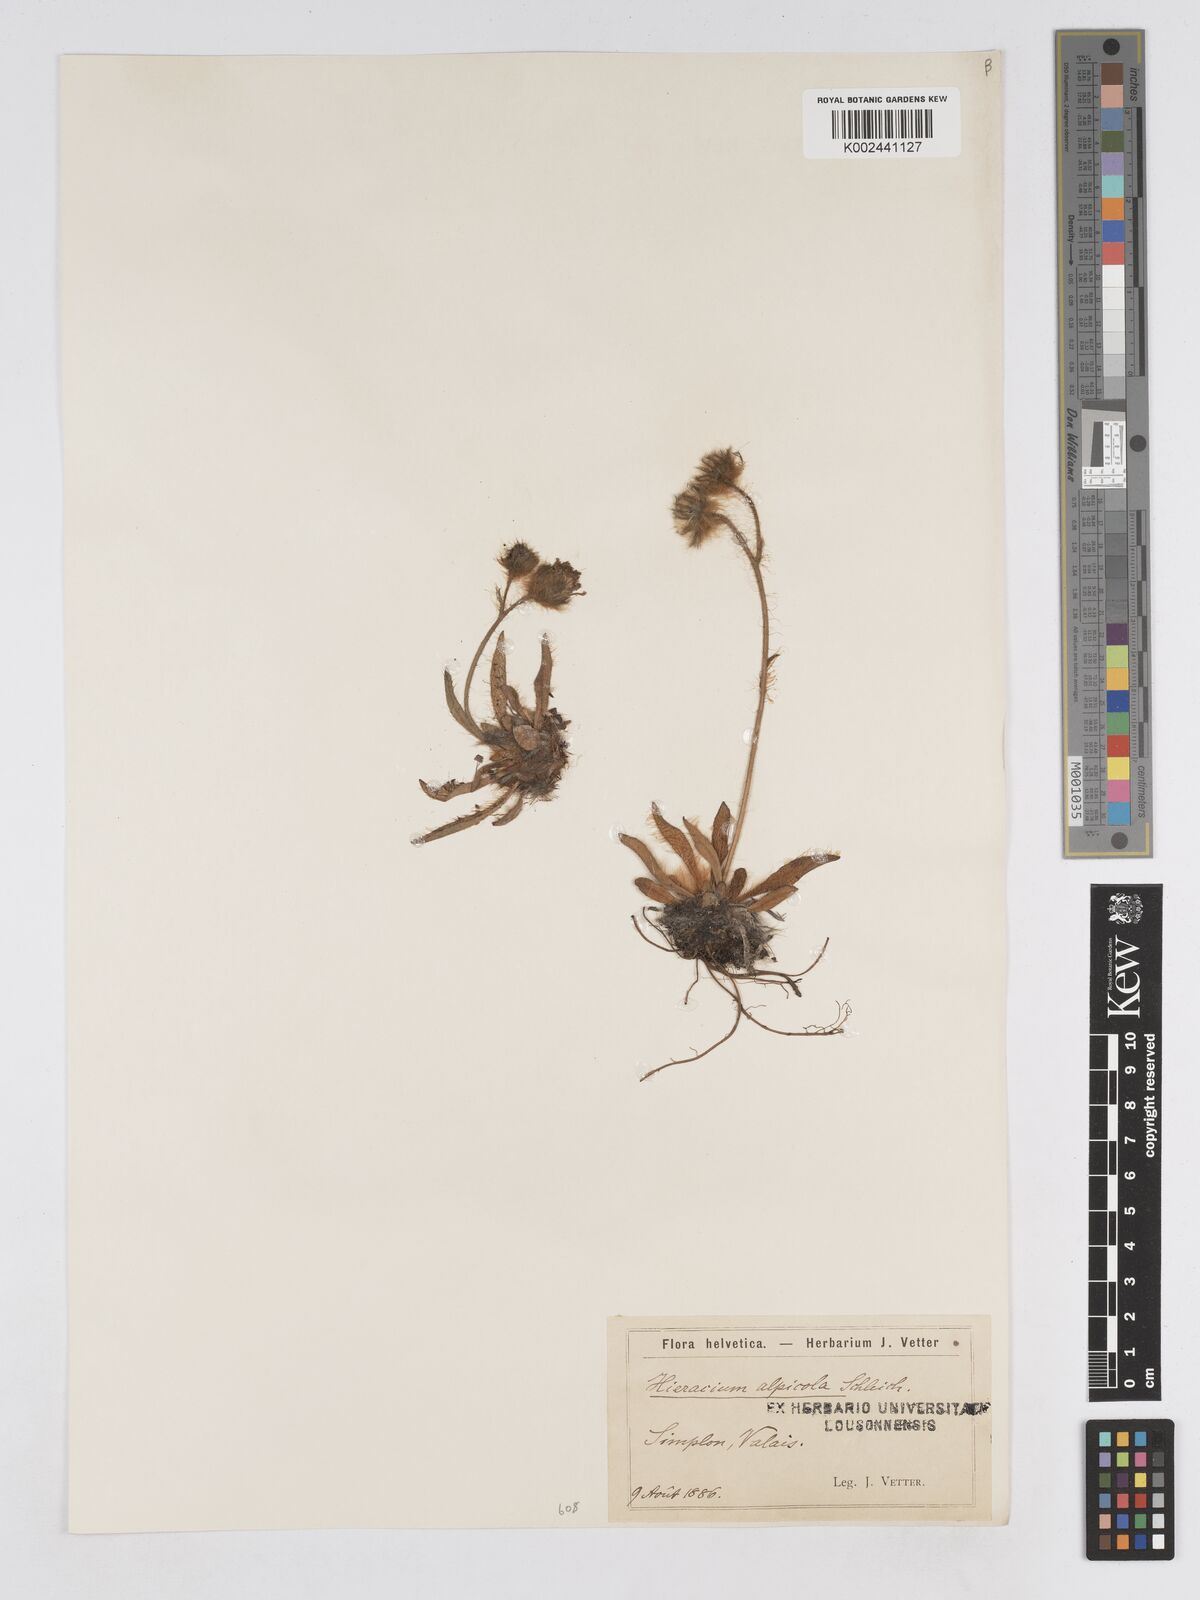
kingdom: Plantae
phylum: Tracheophyta
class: Magnoliopsida
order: Asterales
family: Asteraceae
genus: Pilosella
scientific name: Pilosella subrubens
